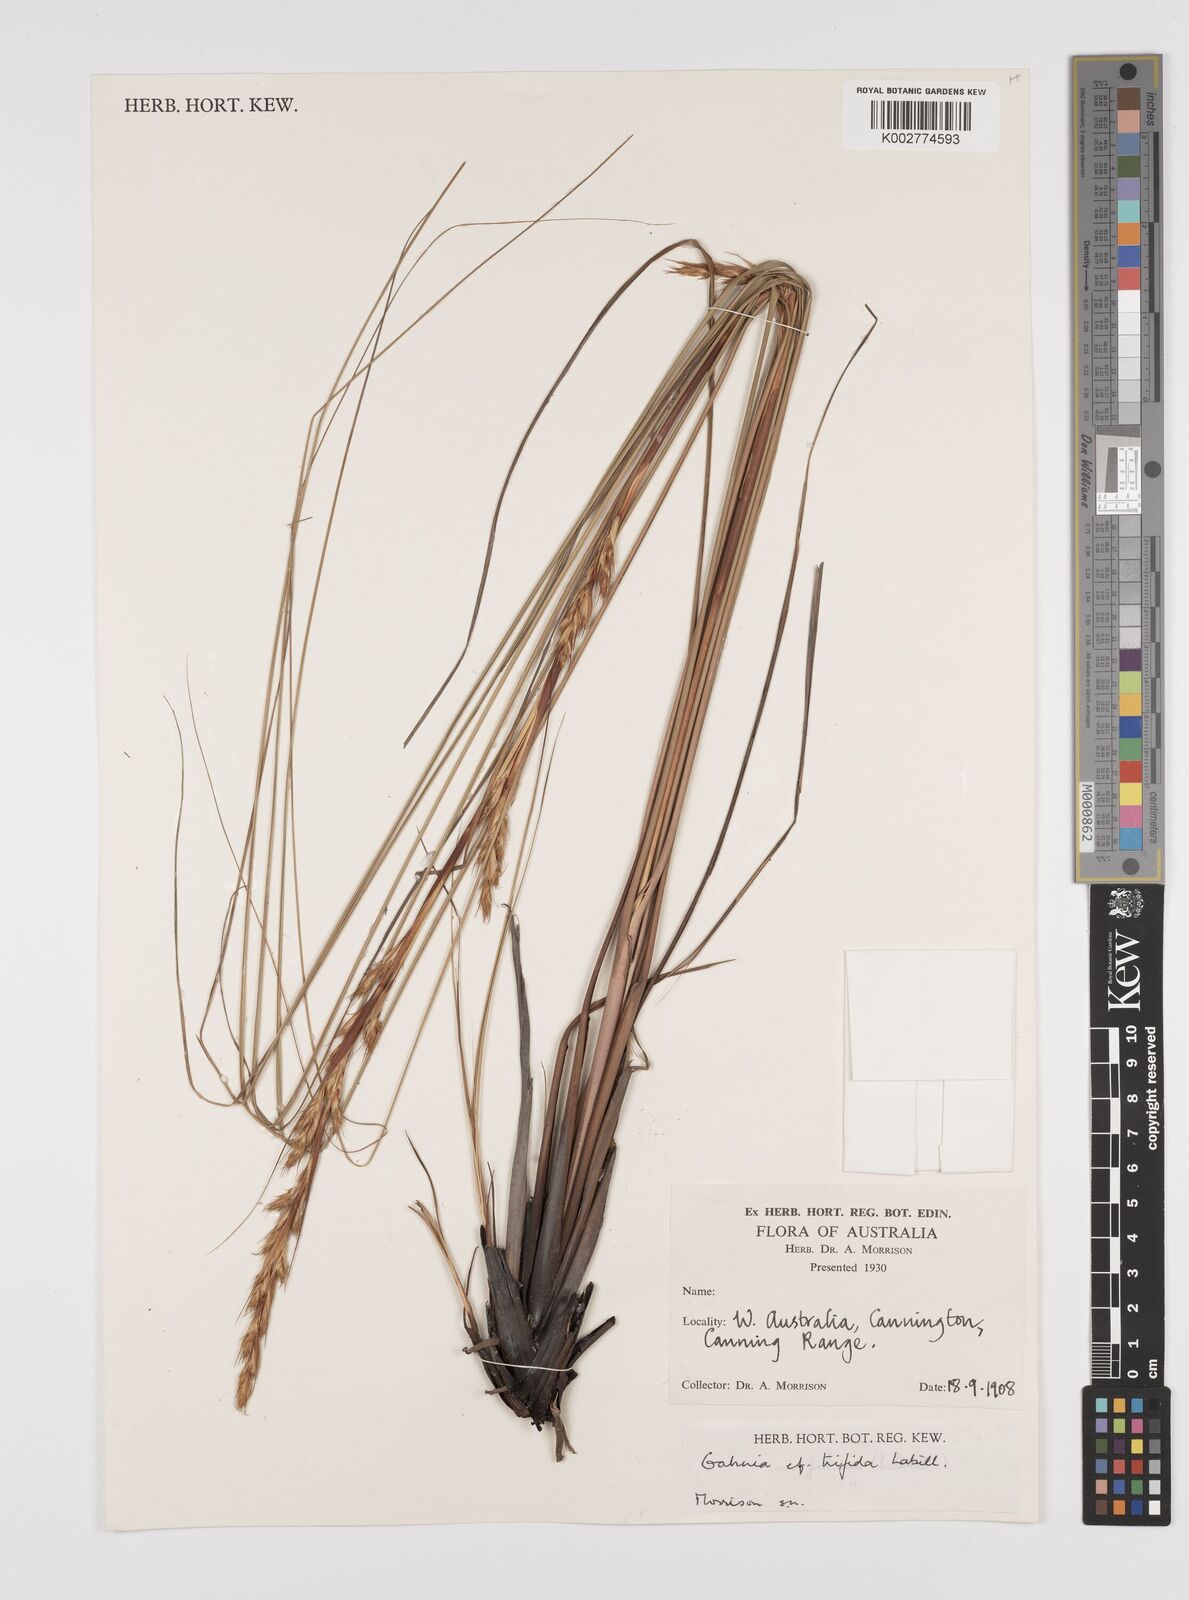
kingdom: Plantae
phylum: Tracheophyta
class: Liliopsida
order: Poales
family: Cyperaceae
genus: Gahnia
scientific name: Gahnia trifida
